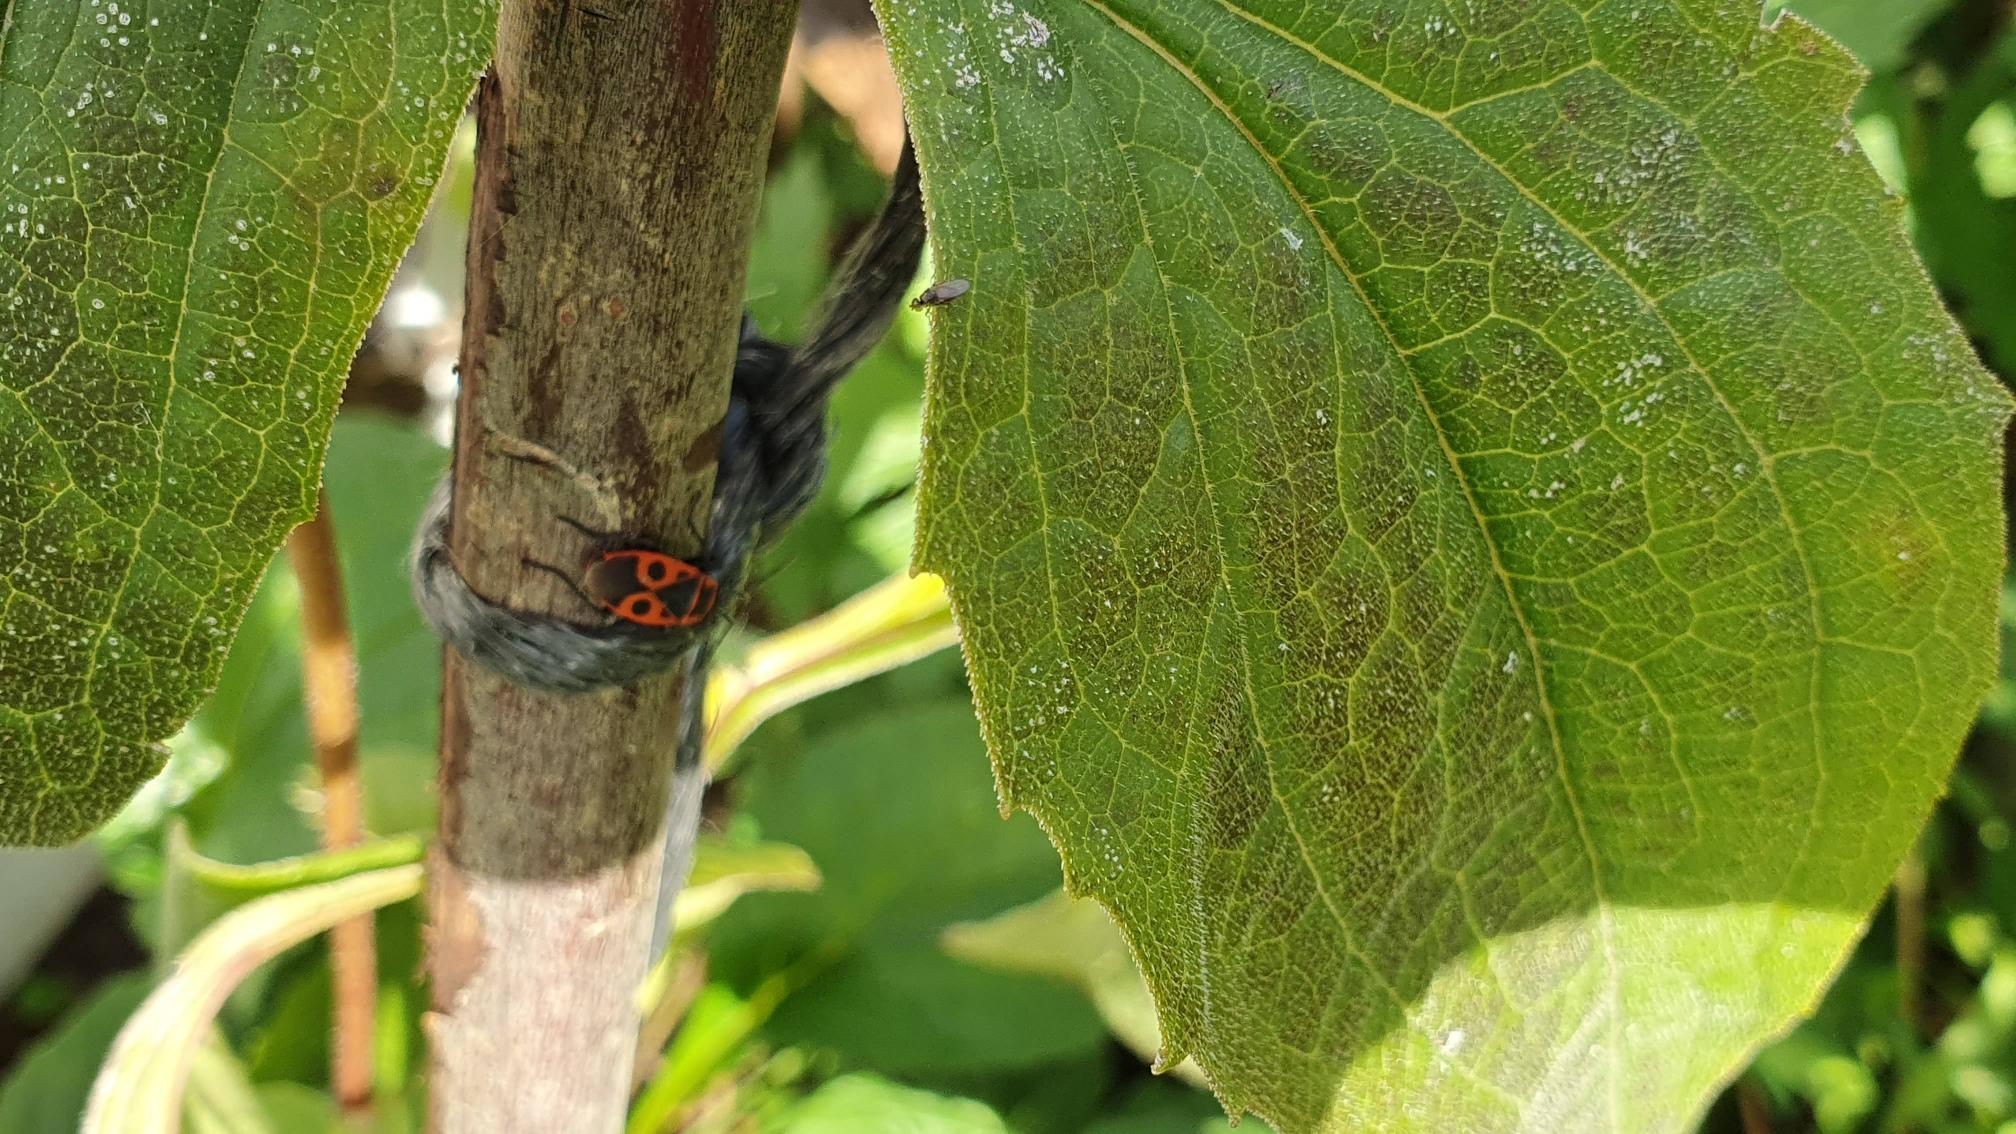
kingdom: Animalia
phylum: Arthropoda
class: Insecta
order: Hemiptera
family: Pyrrhocoridae
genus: Pyrrhocoris
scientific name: Pyrrhocoris apterus
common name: Ildtæge
